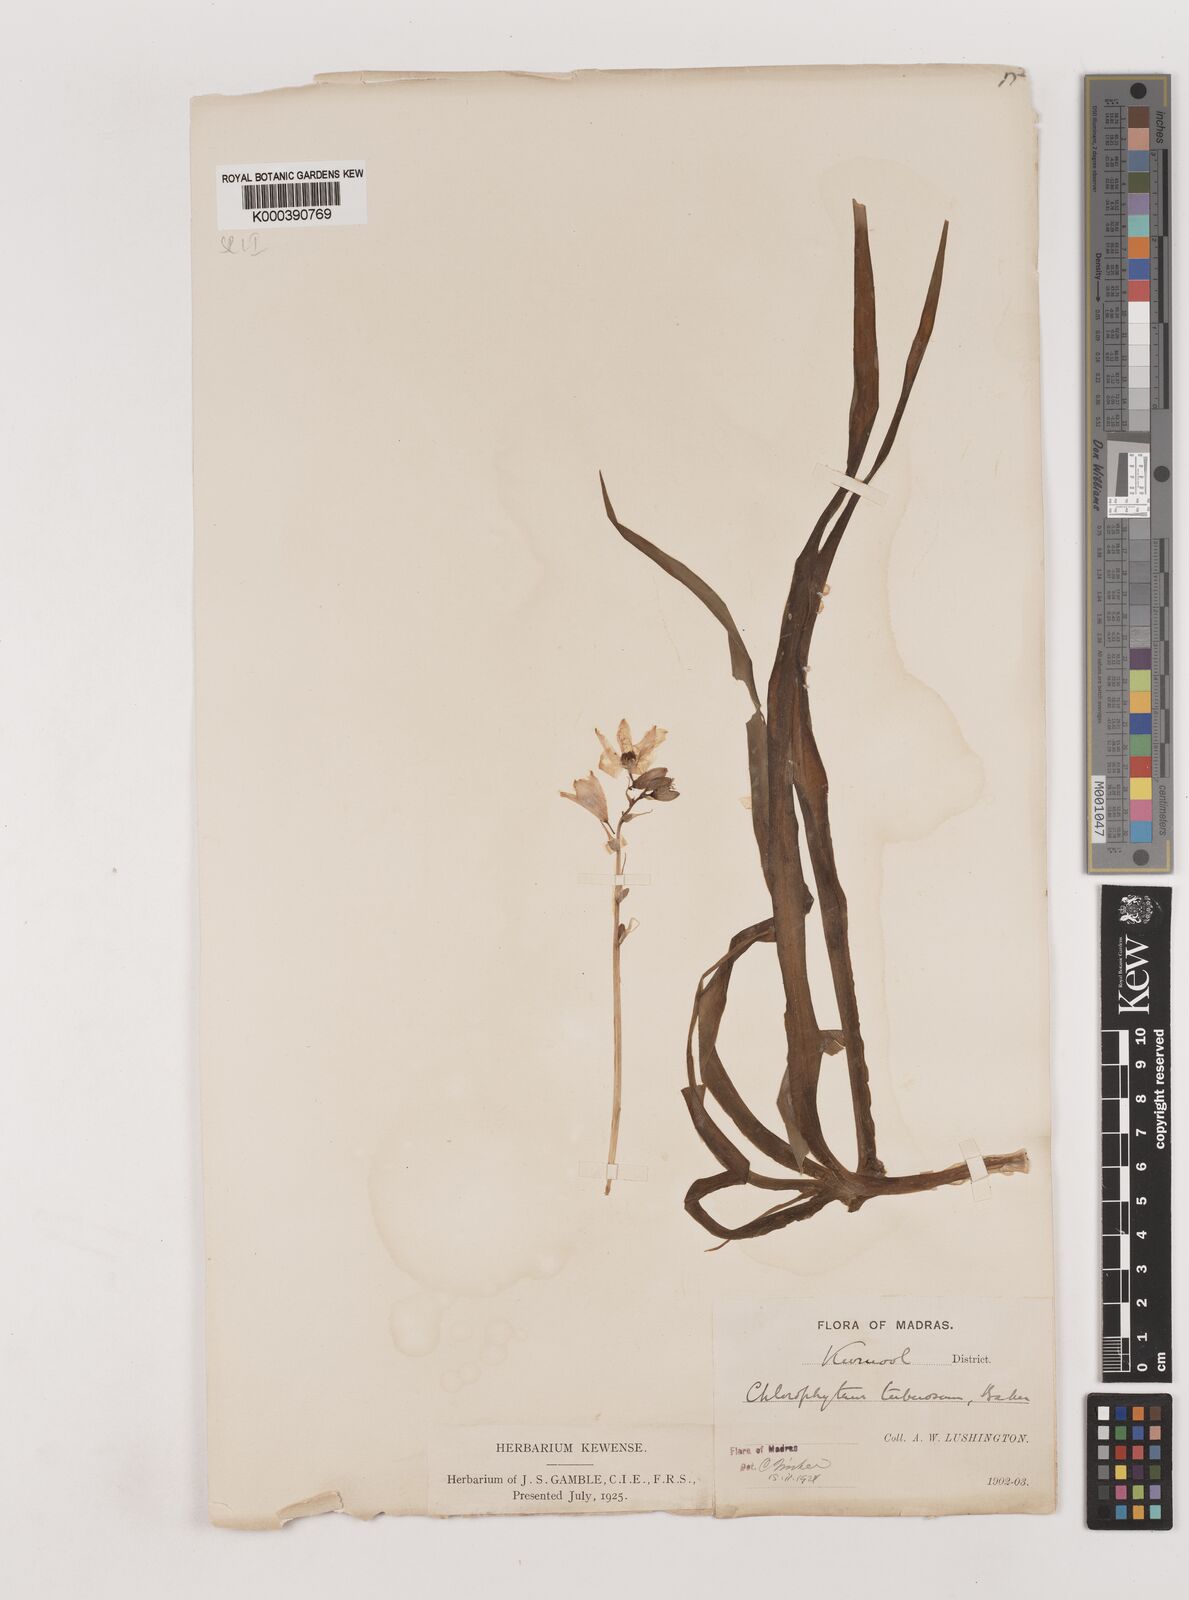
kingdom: Plantae
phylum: Tracheophyta
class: Liliopsida
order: Asparagales
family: Asparagaceae
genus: Chlorophytum
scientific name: Chlorophytum tuberosum
